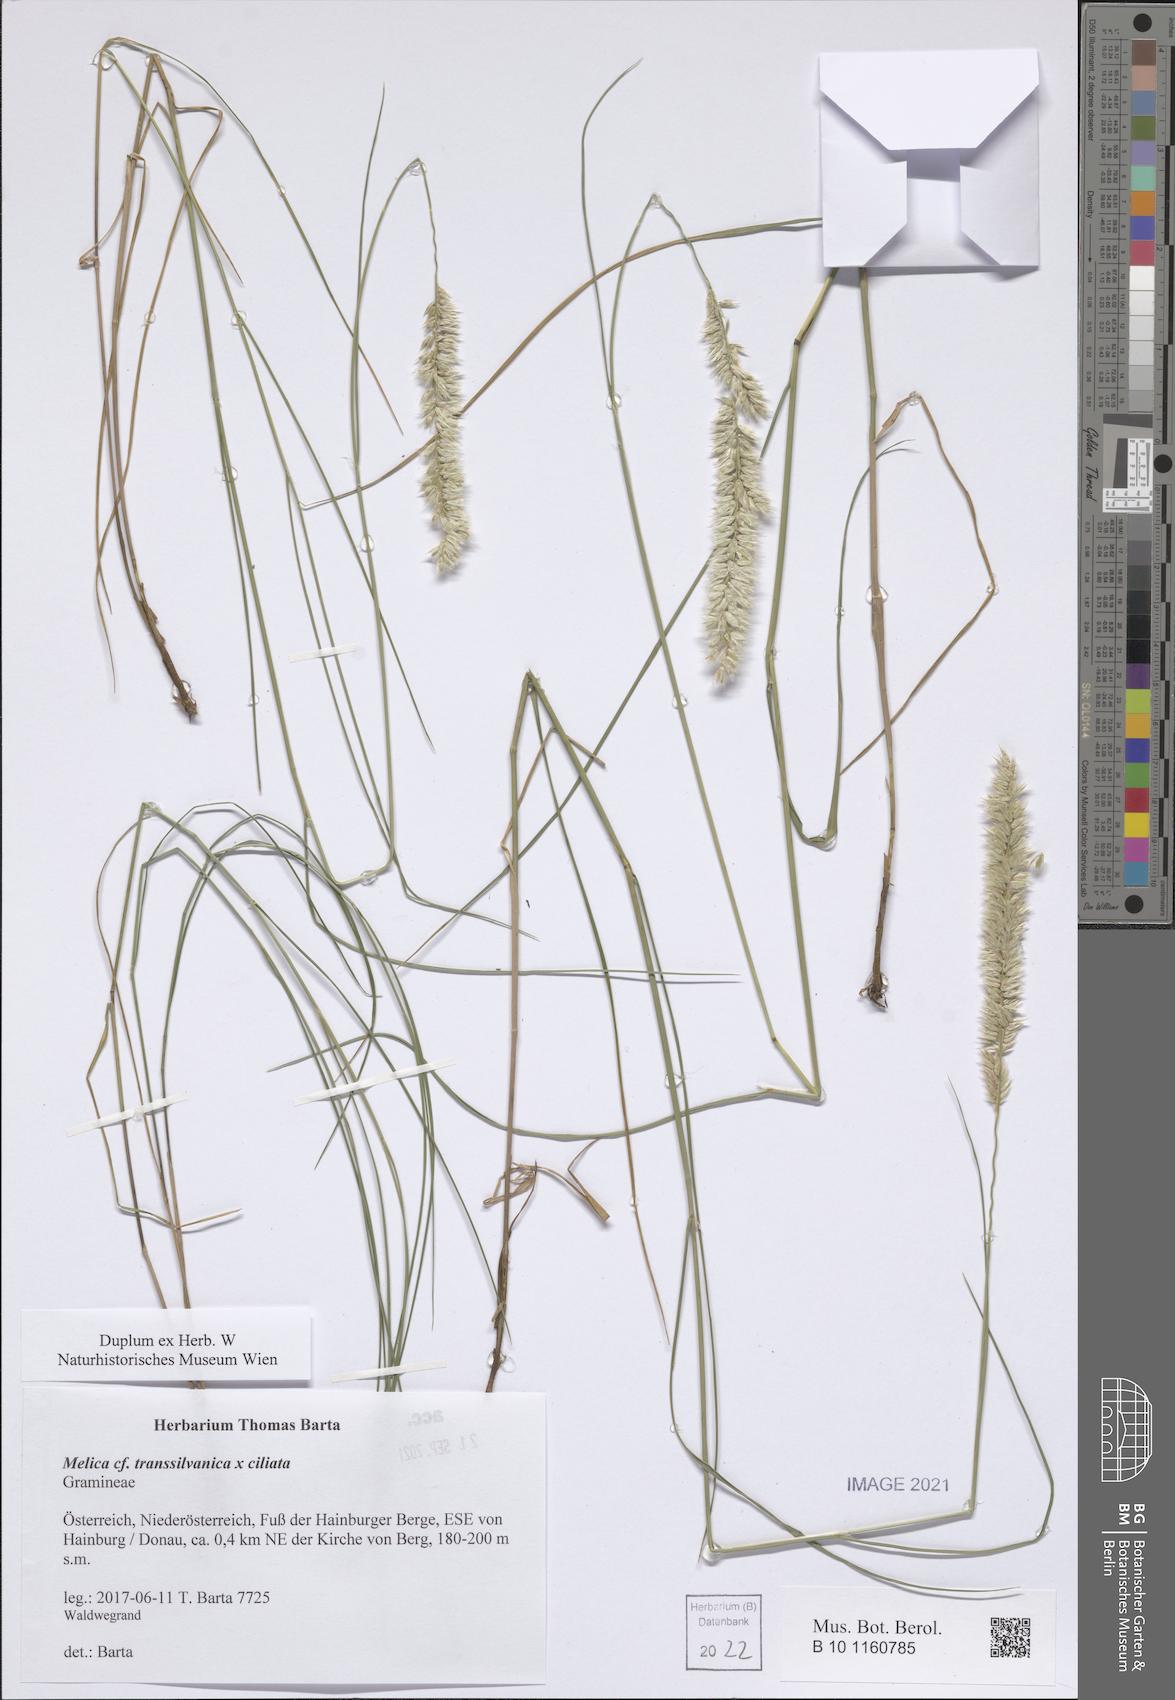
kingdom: Plantae
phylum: Tracheophyta
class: Liliopsida
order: Poales
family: Poaceae
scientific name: Poaceae
